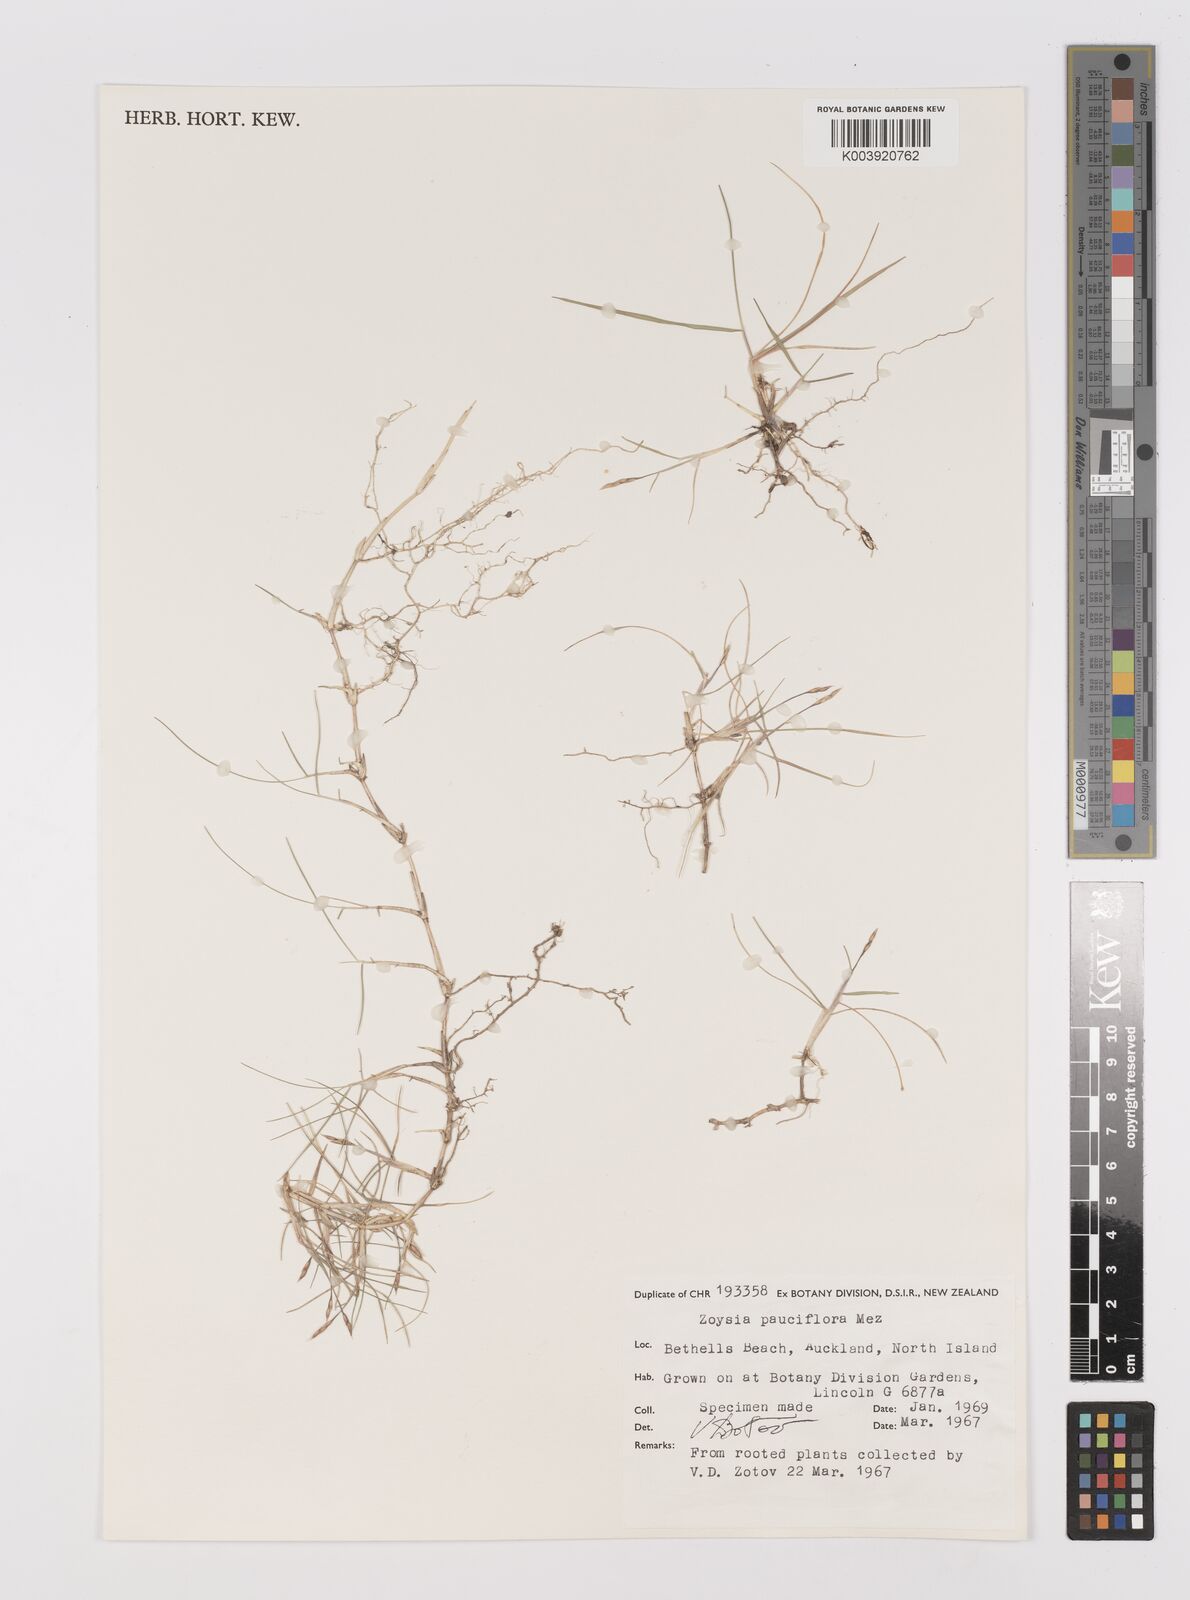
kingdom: Plantae
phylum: Tracheophyta
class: Liliopsida
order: Poales
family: Poaceae
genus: Zoysia
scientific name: Zoysia pauciflora
